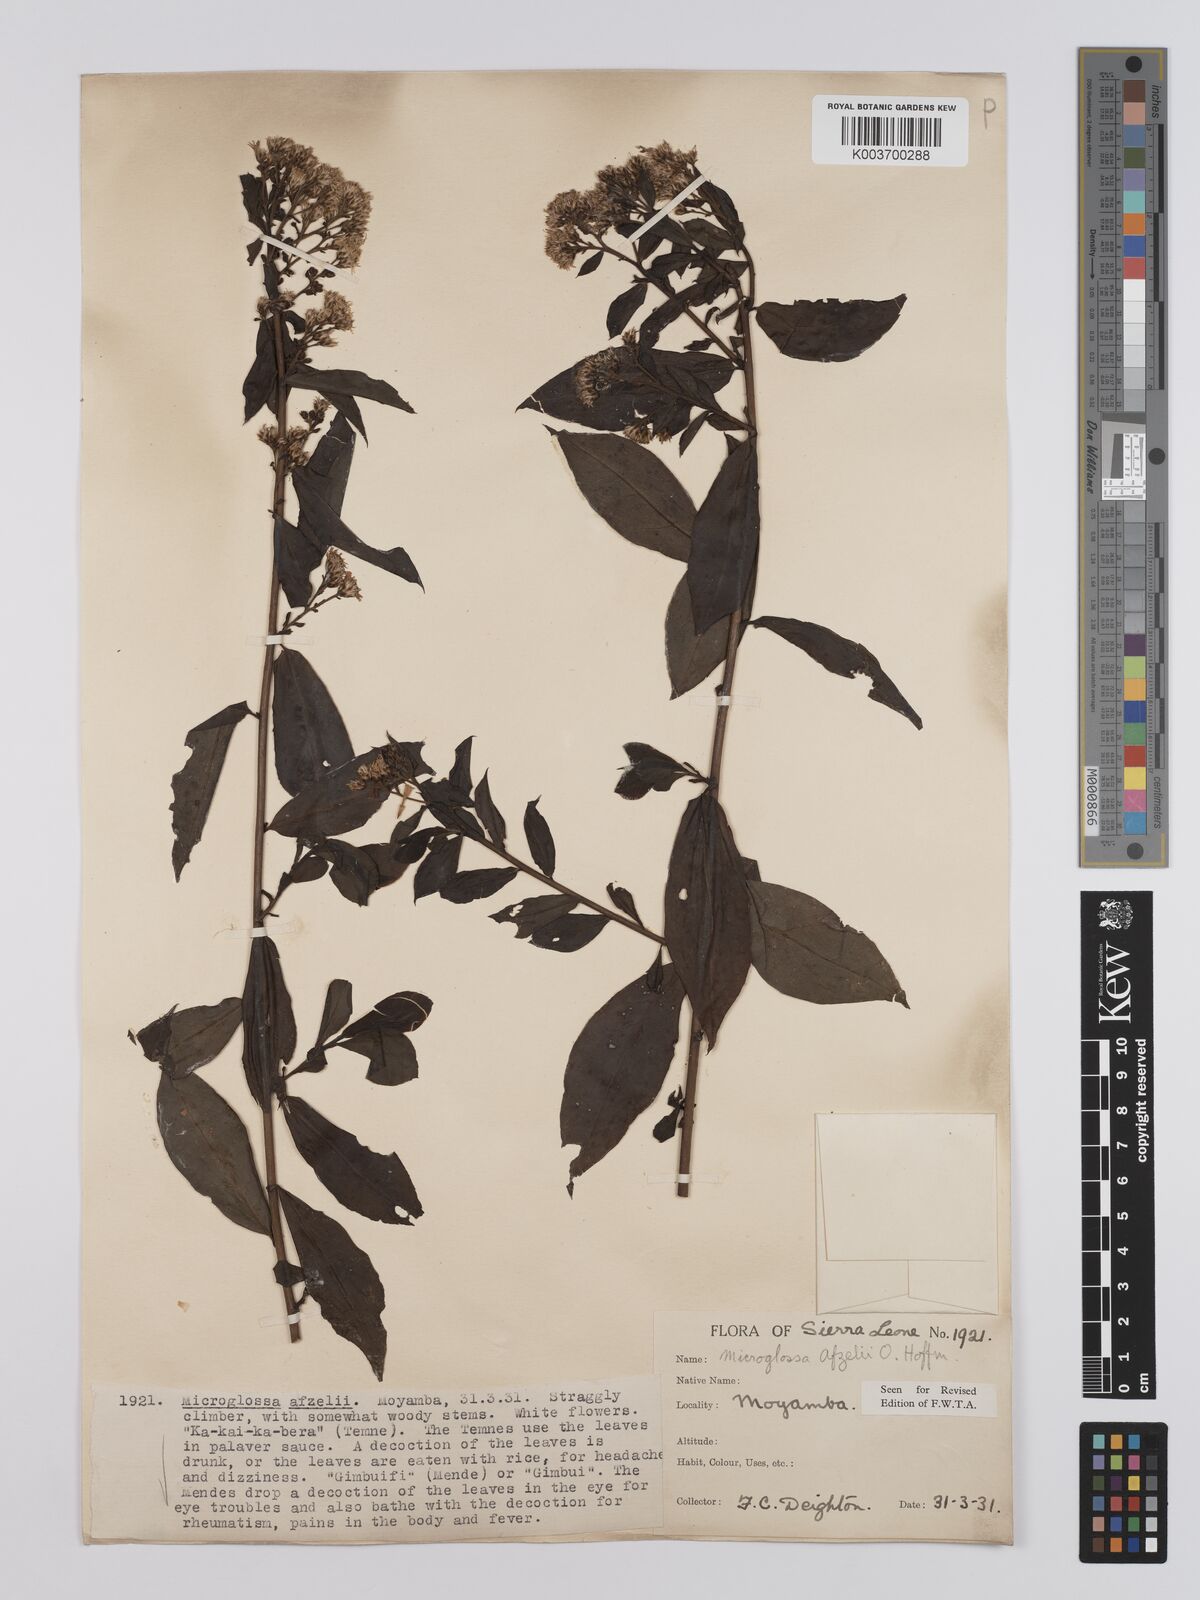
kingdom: Plantae
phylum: Tracheophyta
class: Magnoliopsida
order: Asterales
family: Asteraceae
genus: Microglossa
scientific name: Microglossa afzelii
